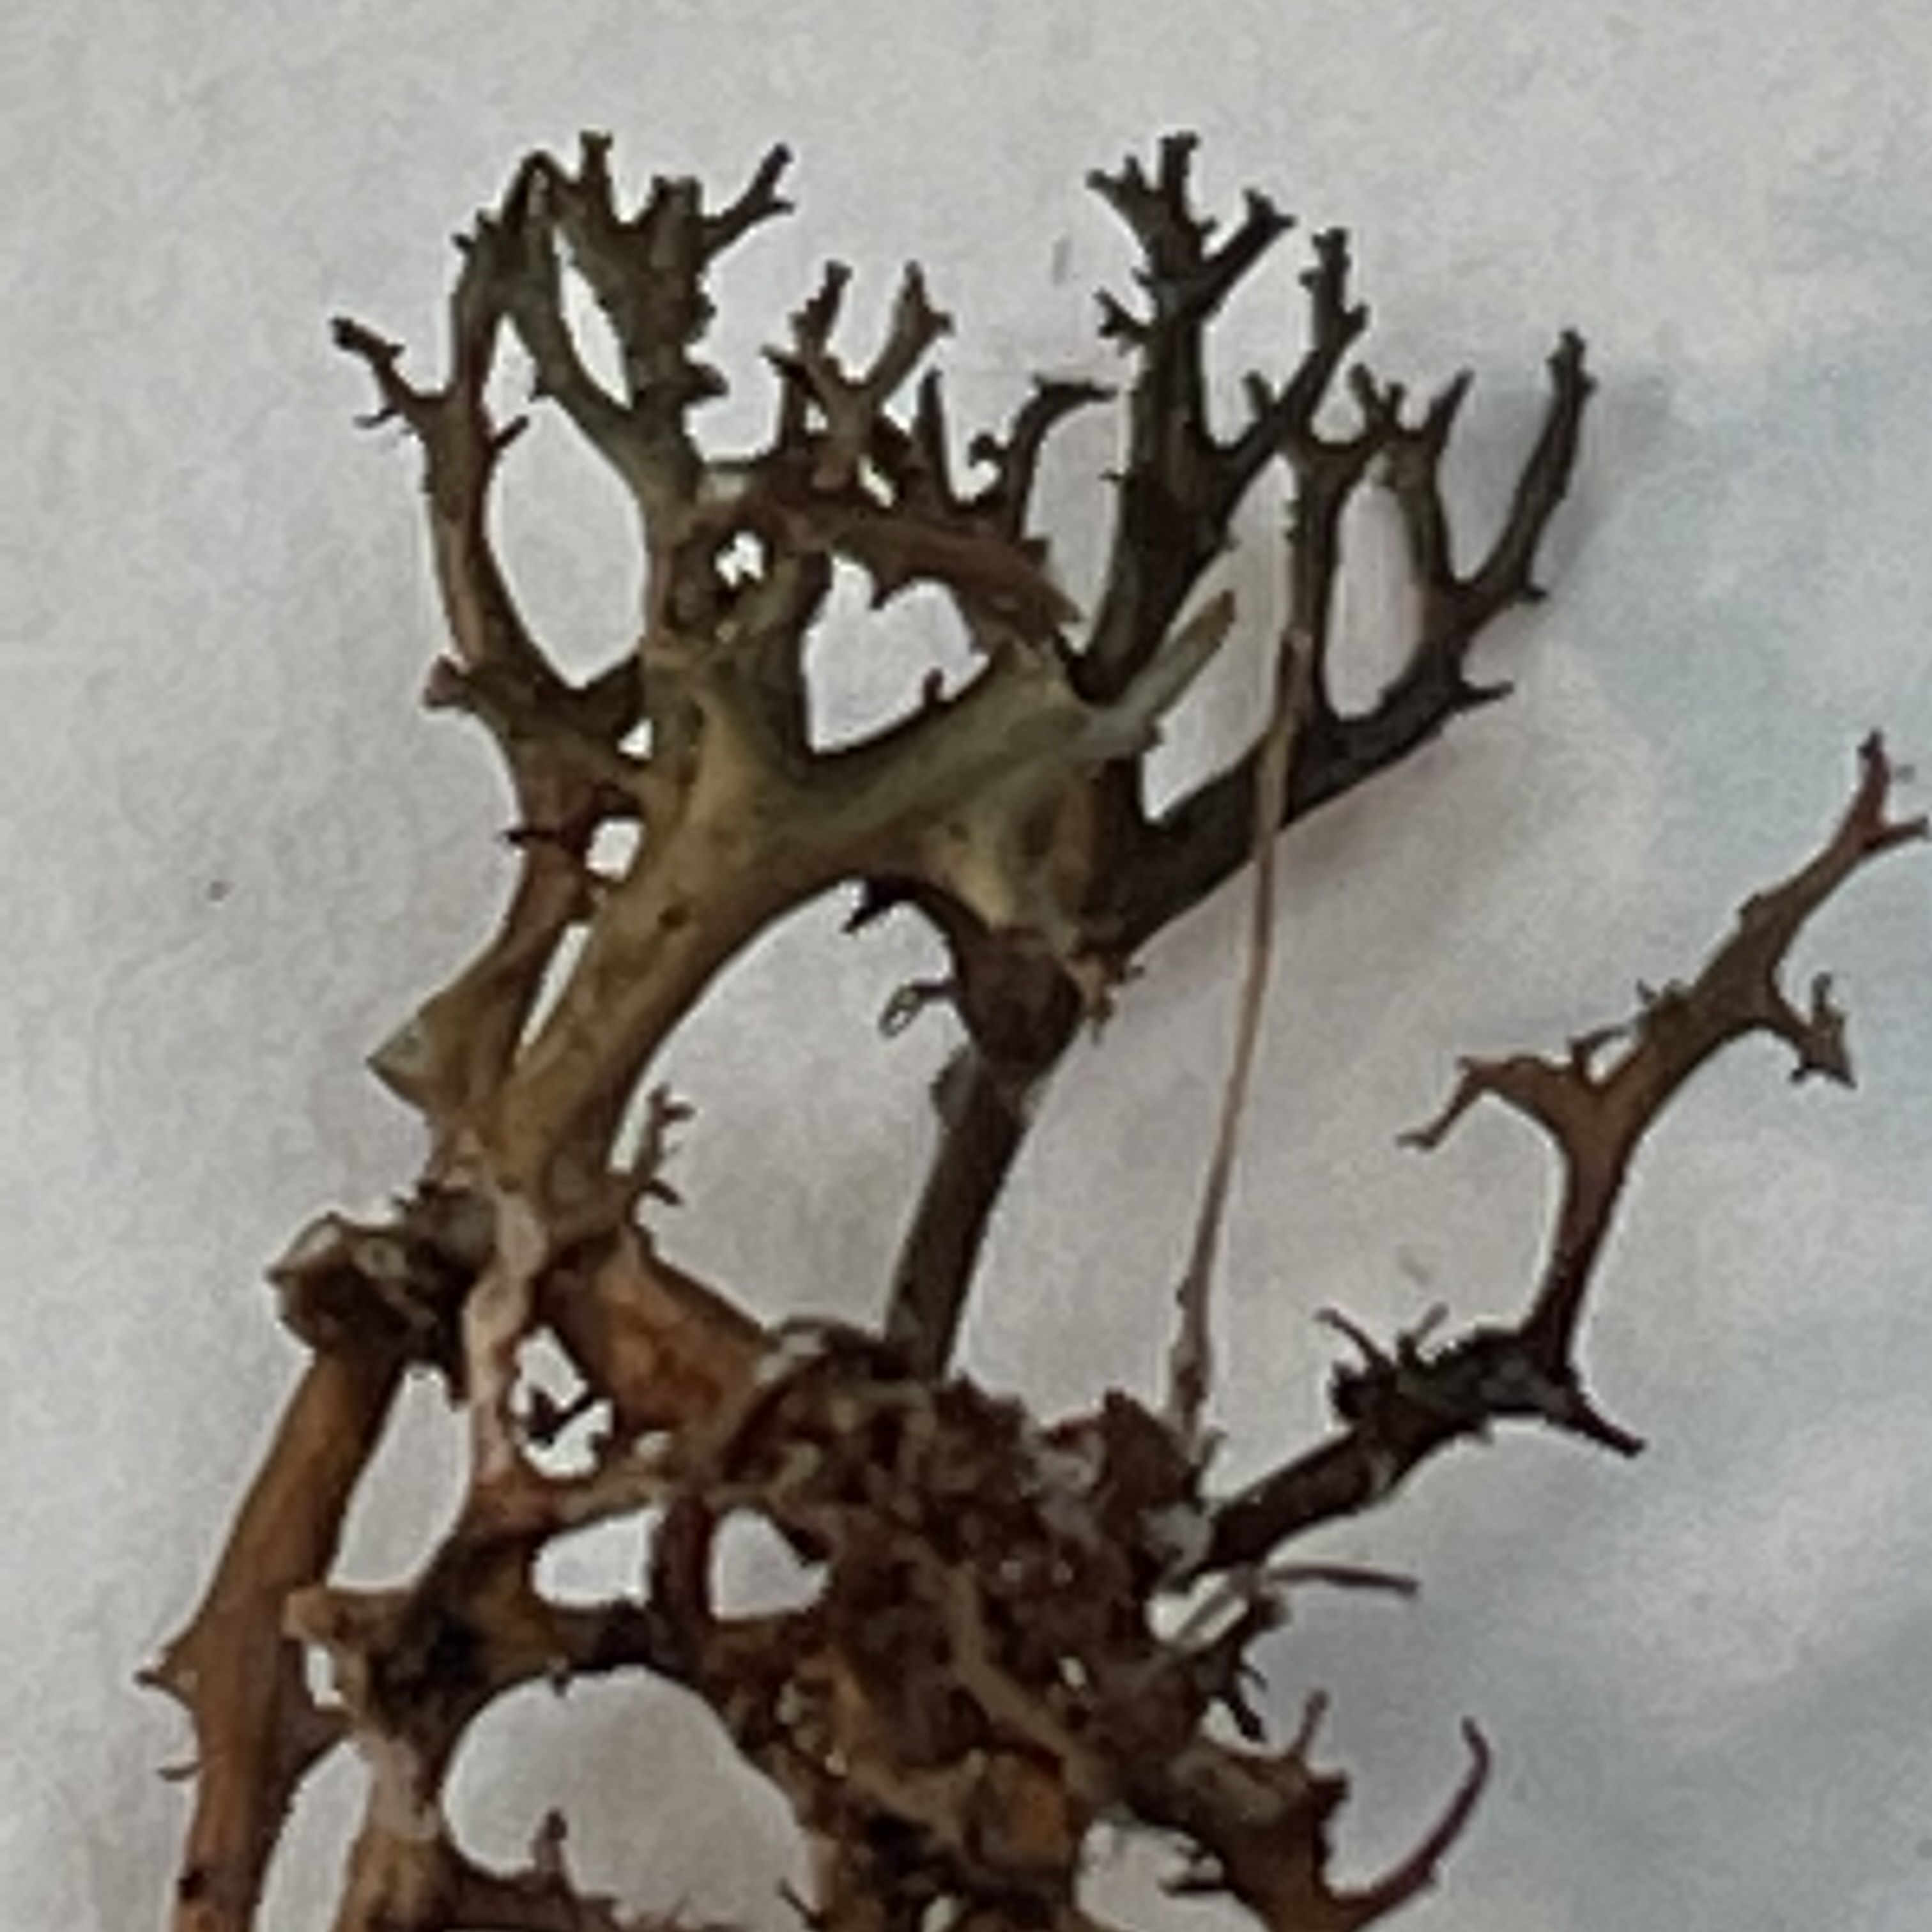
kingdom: Fungi
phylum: Ascomycota
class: Lecanoromycetes
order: Lecanorales
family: Parmeliaceae
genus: Cetraria
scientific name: Cetraria muricata
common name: tue-tjørnelav
